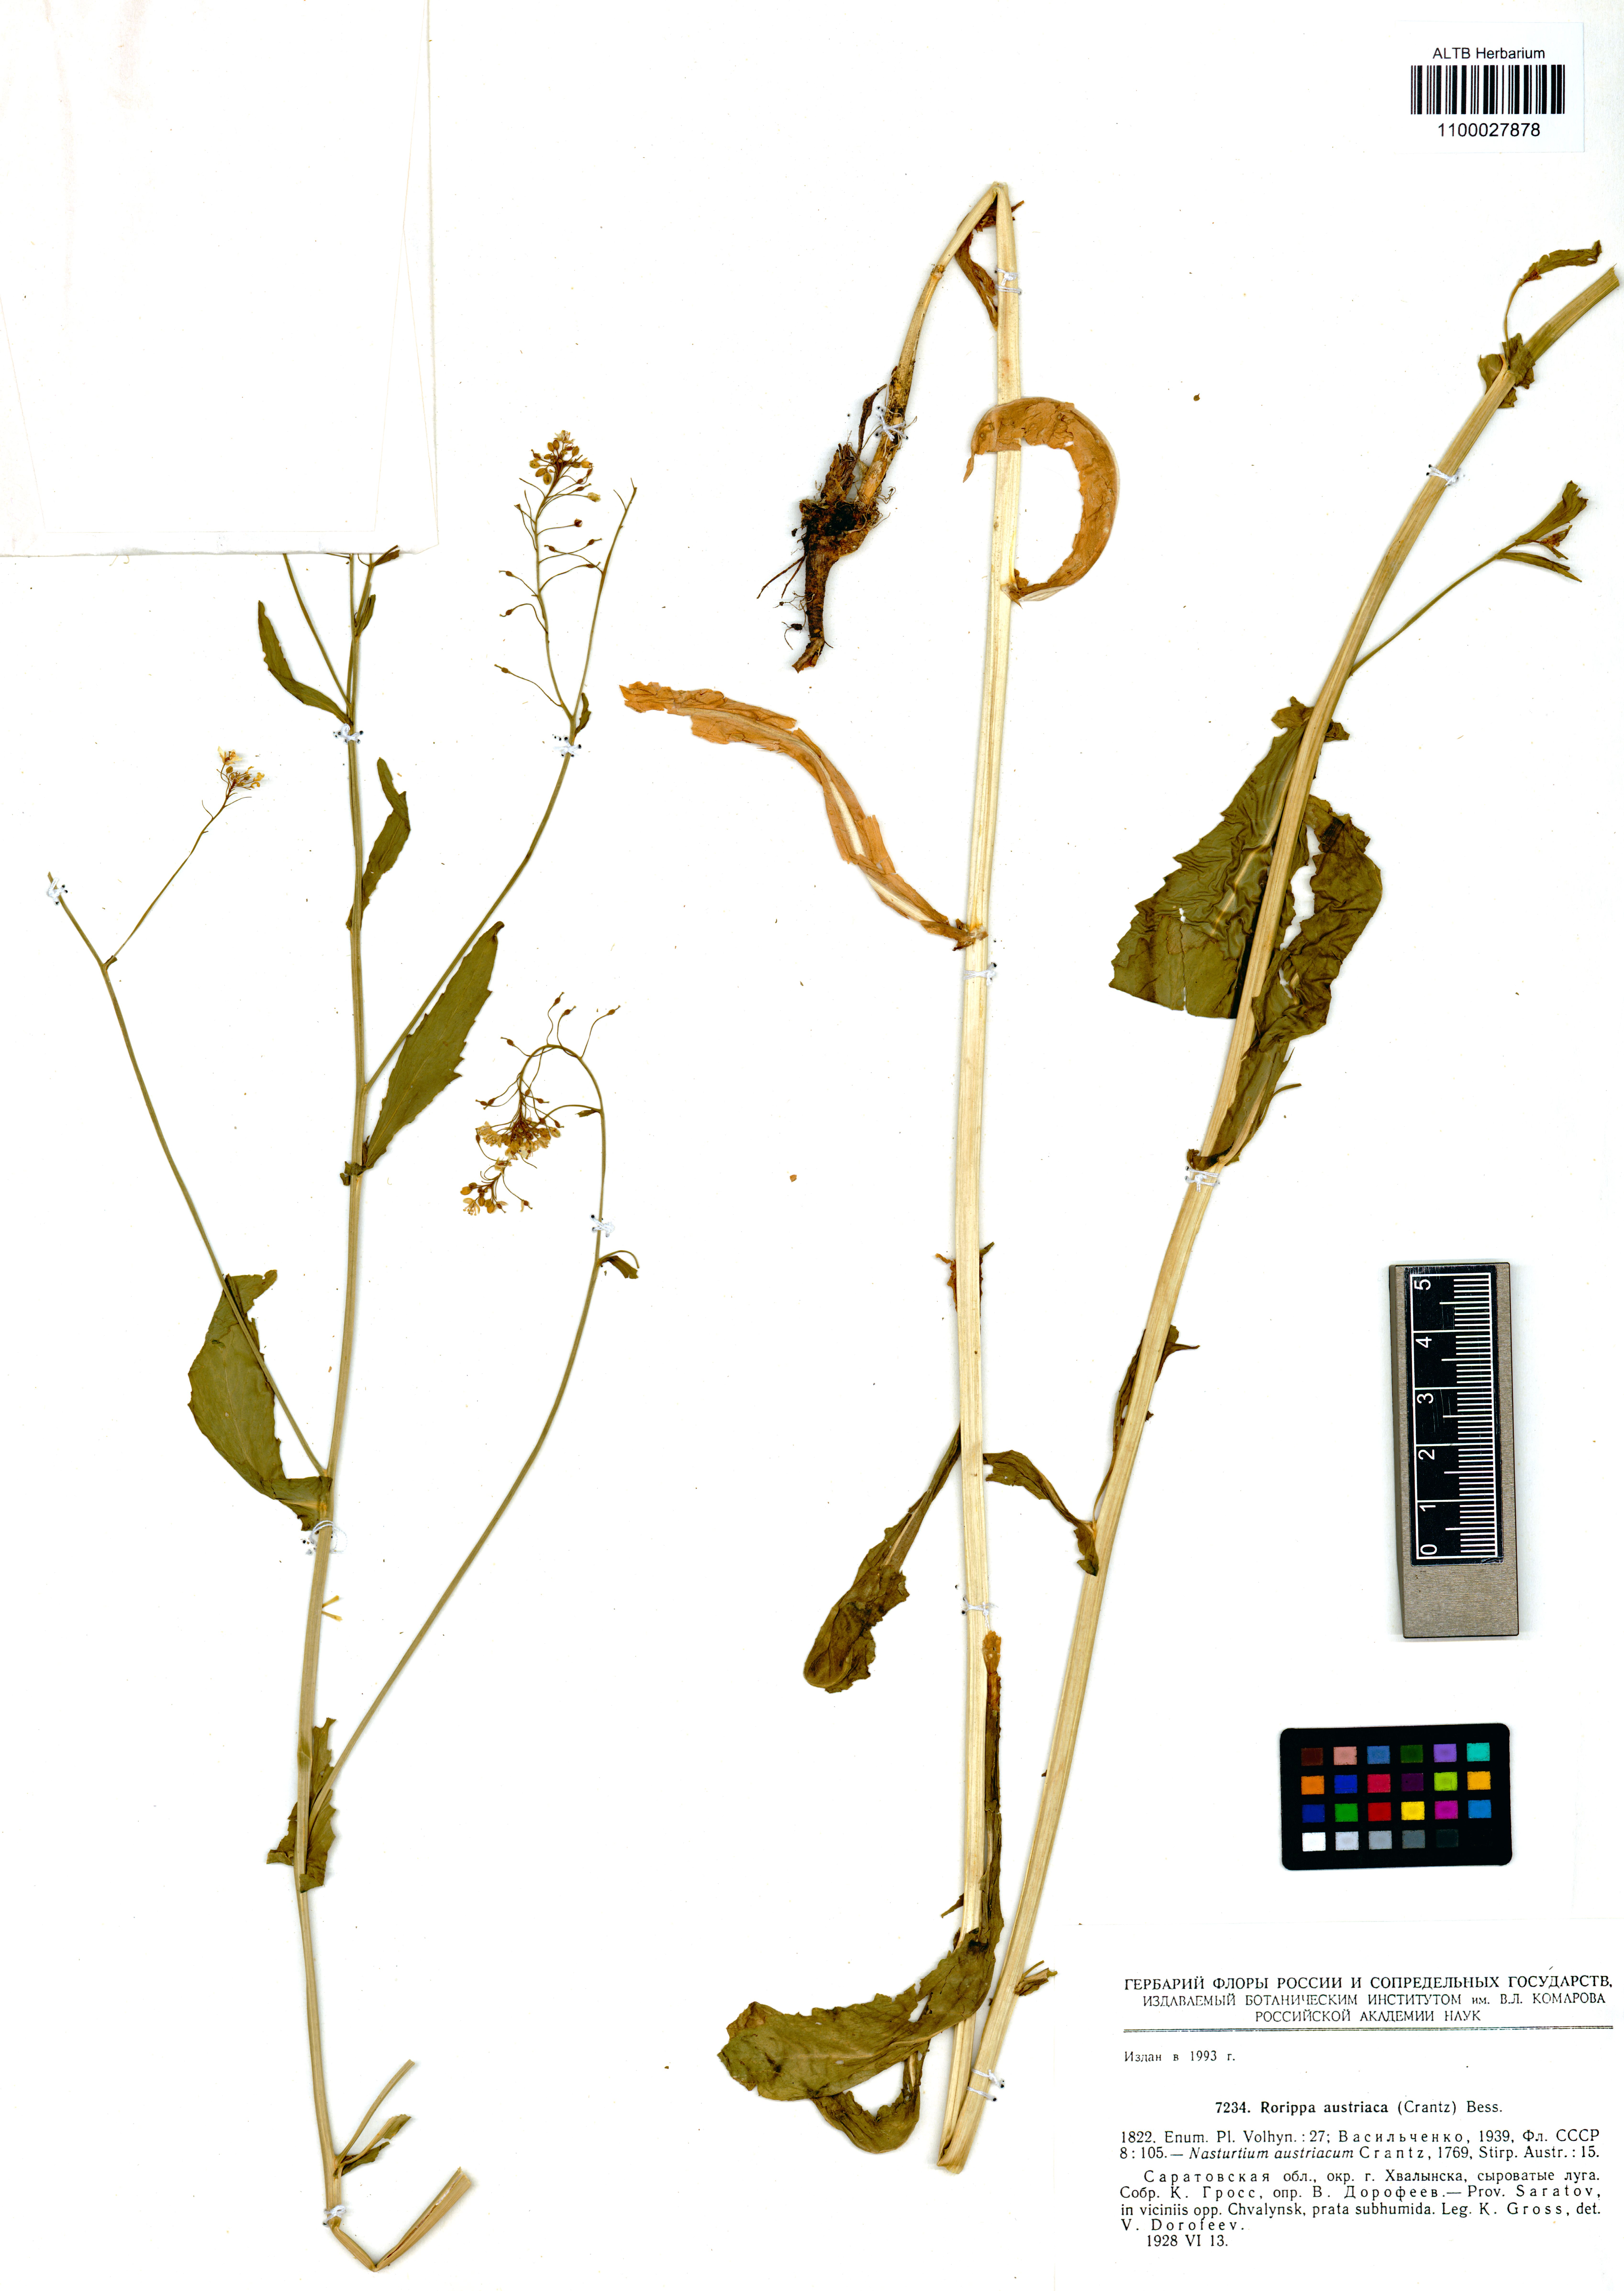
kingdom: Plantae
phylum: Tracheophyta
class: Magnoliopsida
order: Brassicales
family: Brassicaceae
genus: Rorippa
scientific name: Rorippa austriaca
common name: Austrian yellow-cress
